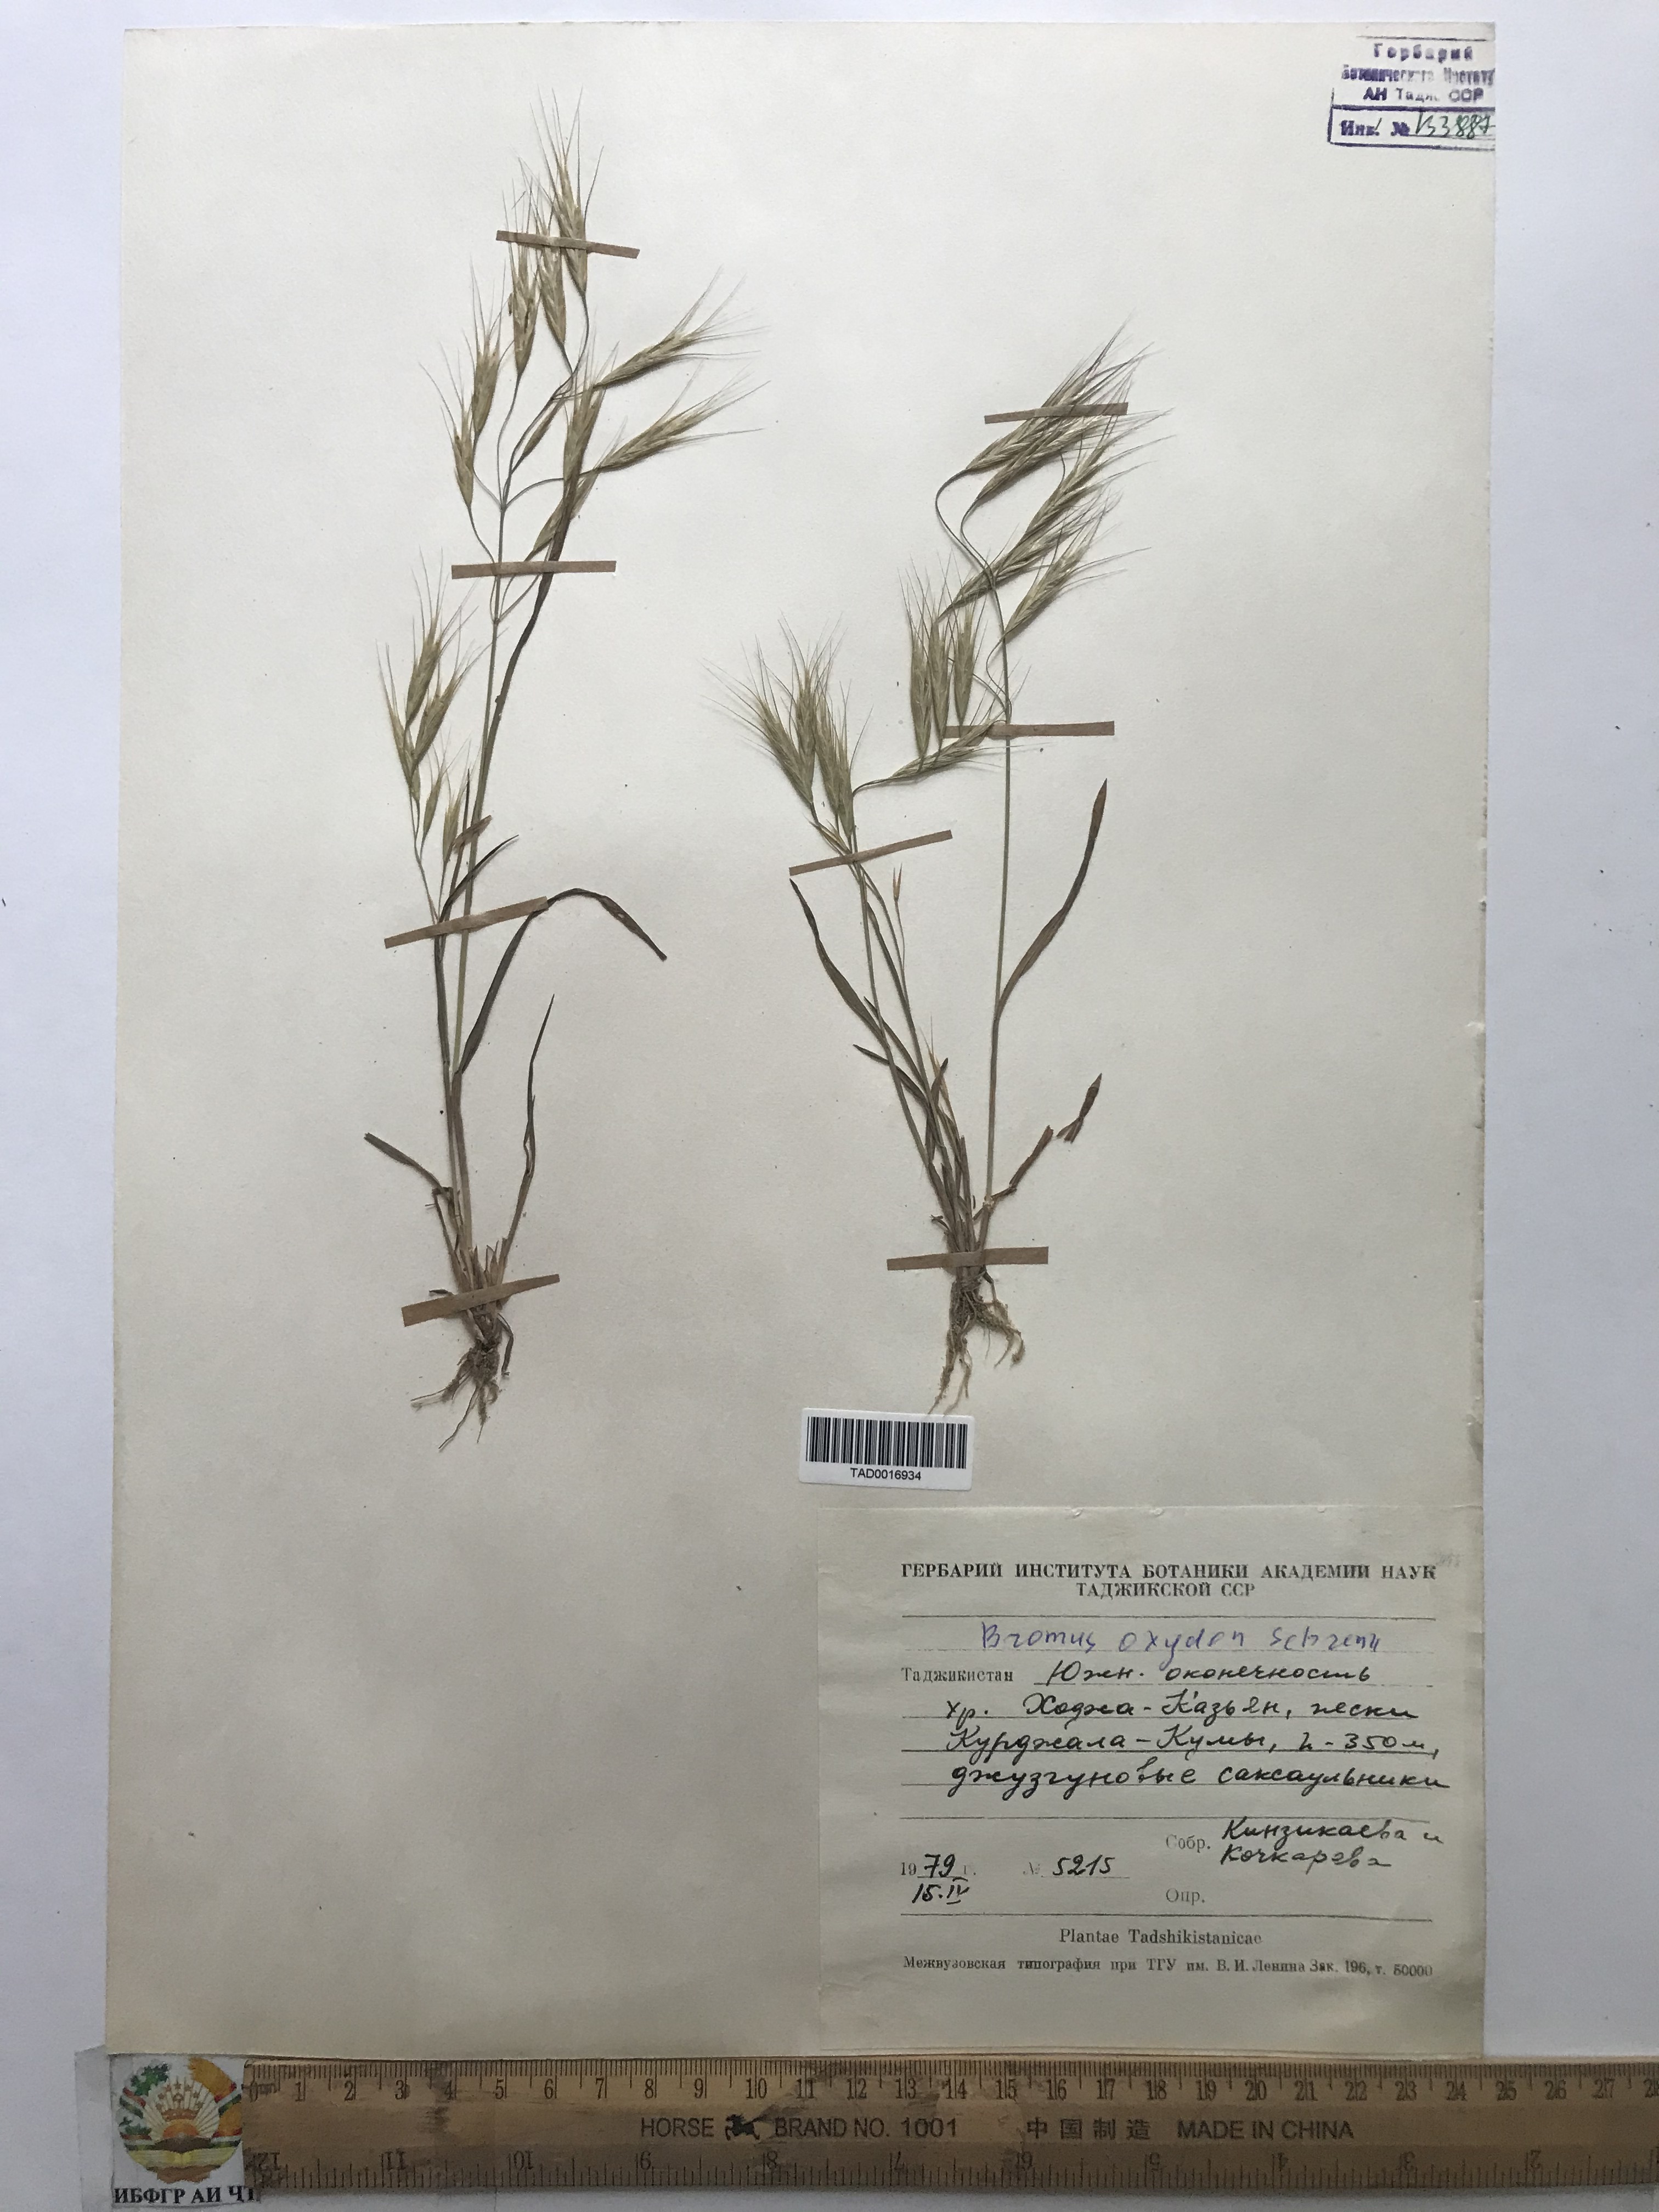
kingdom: Plantae
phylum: Tracheophyta
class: Liliopsida
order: Poales
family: Poaceae
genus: Bromus
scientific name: Bromus oxyodon
